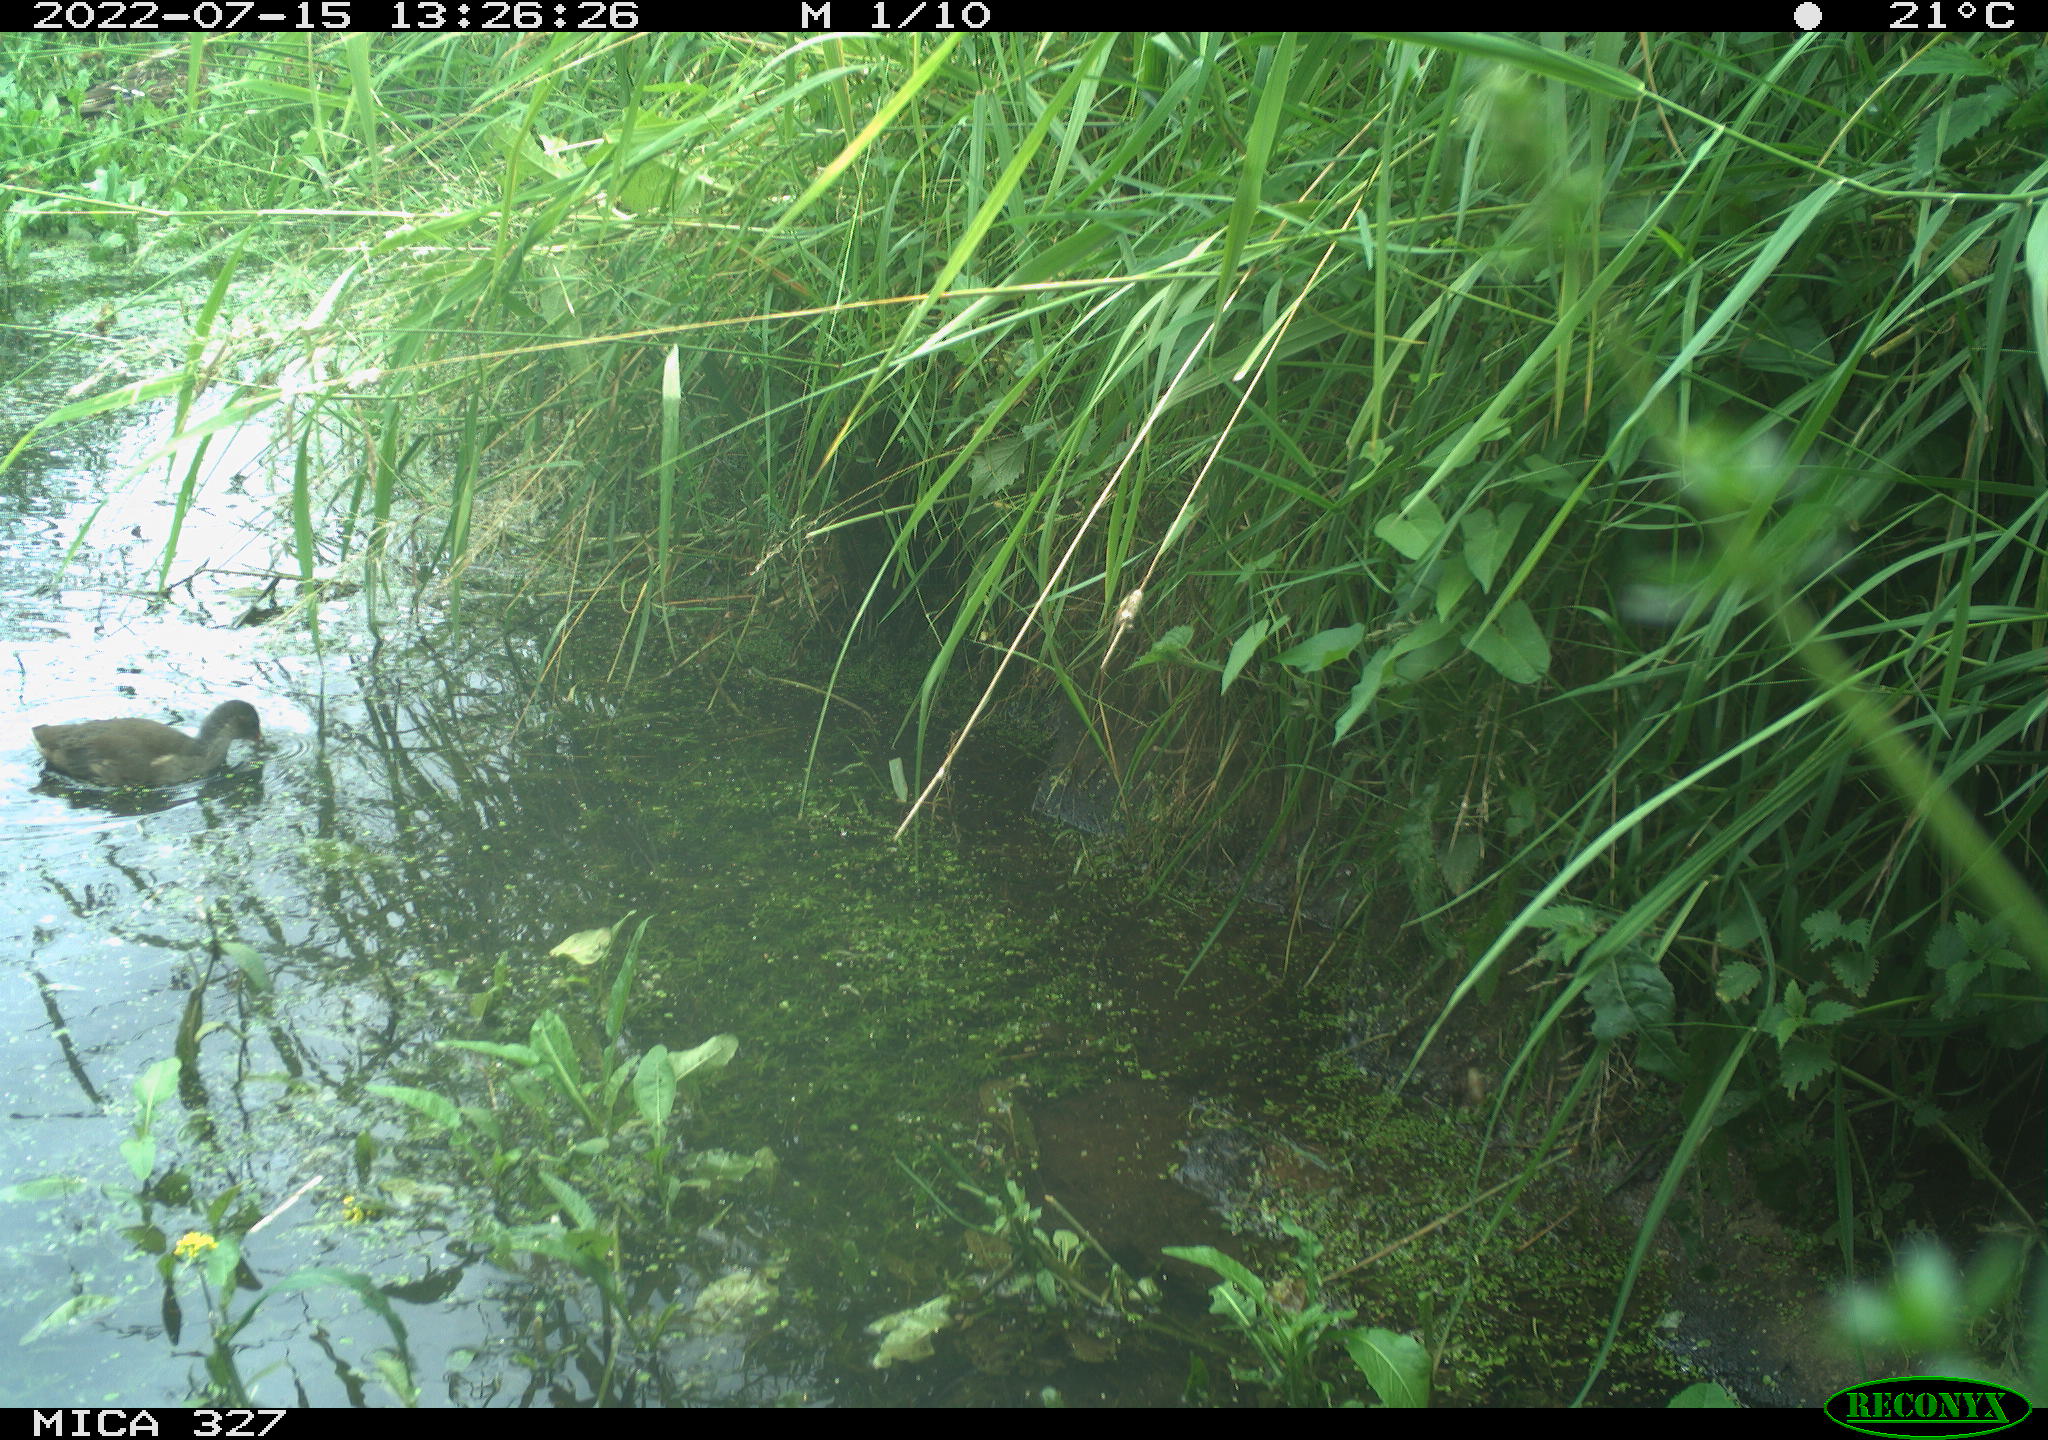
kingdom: Animalia
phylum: Chordata
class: Aves
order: Gruiformes
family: Rallidae
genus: Gallinula
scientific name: Gallinula chloropus
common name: Common moorhen
